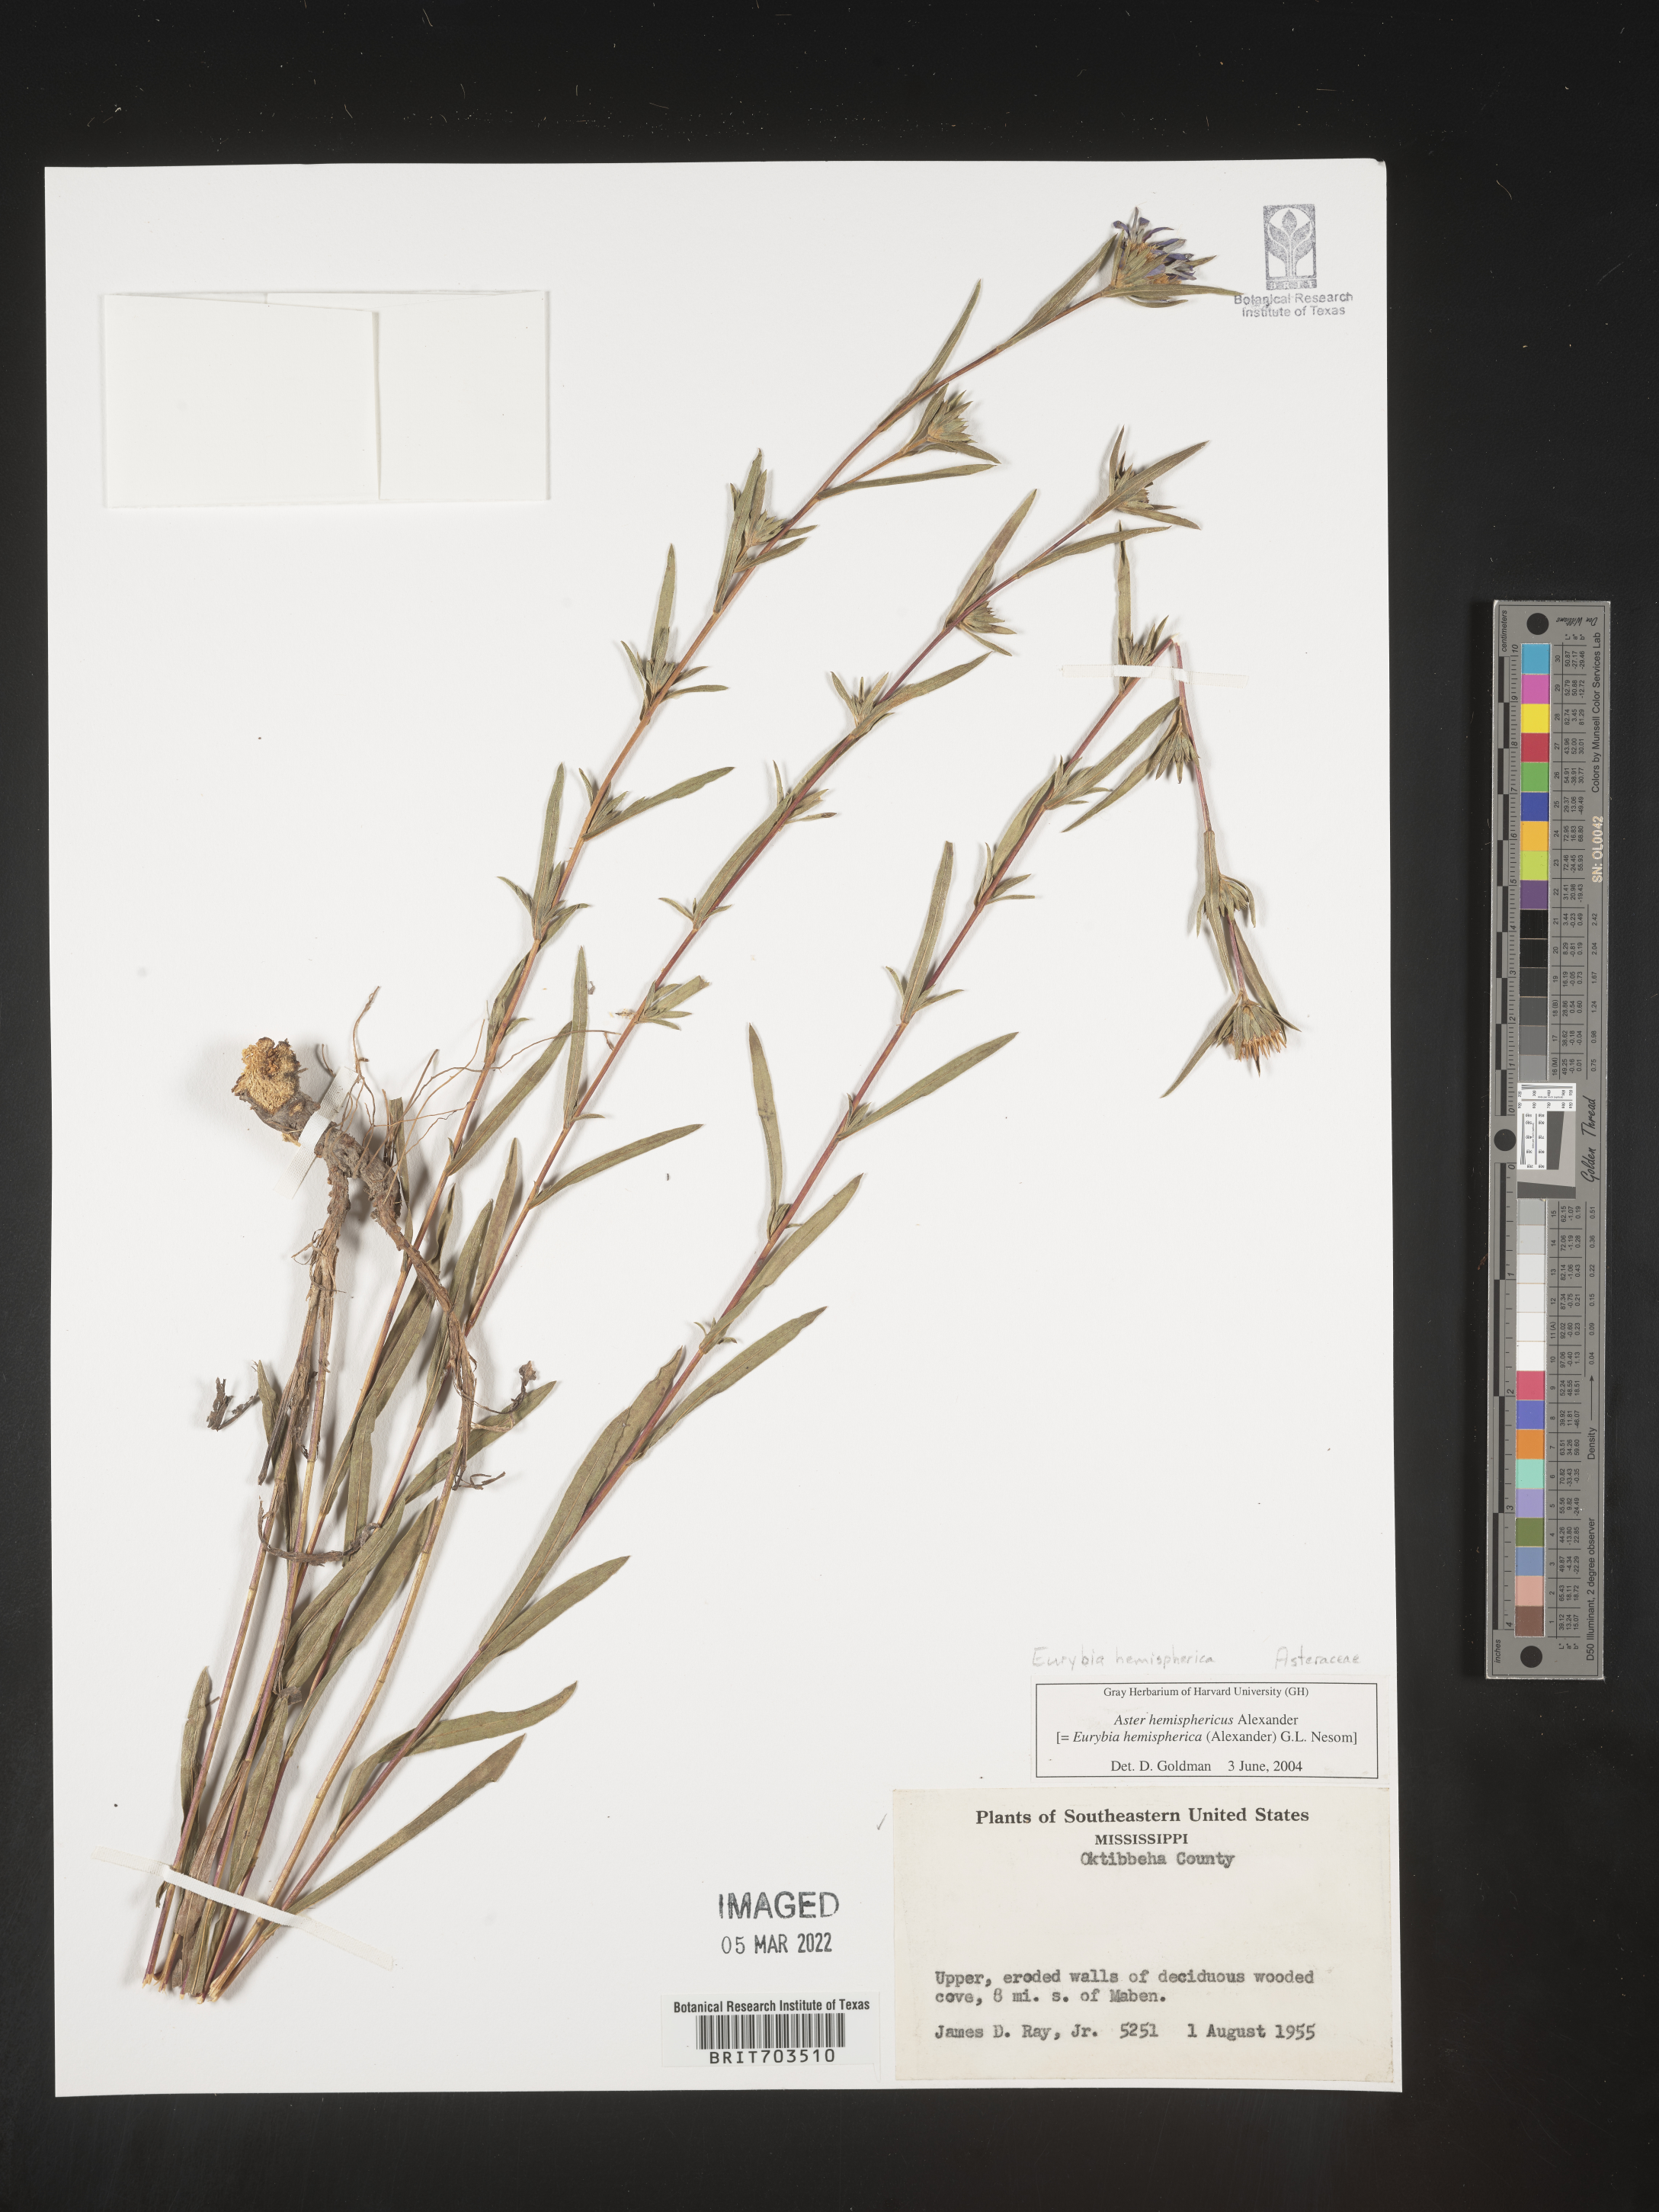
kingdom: Plantae
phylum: Tracheophyta
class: Magnoliopsida
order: Asterales
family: Asteraceae
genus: Eurybia
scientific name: Eurybia hemispherica
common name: Showy aster
